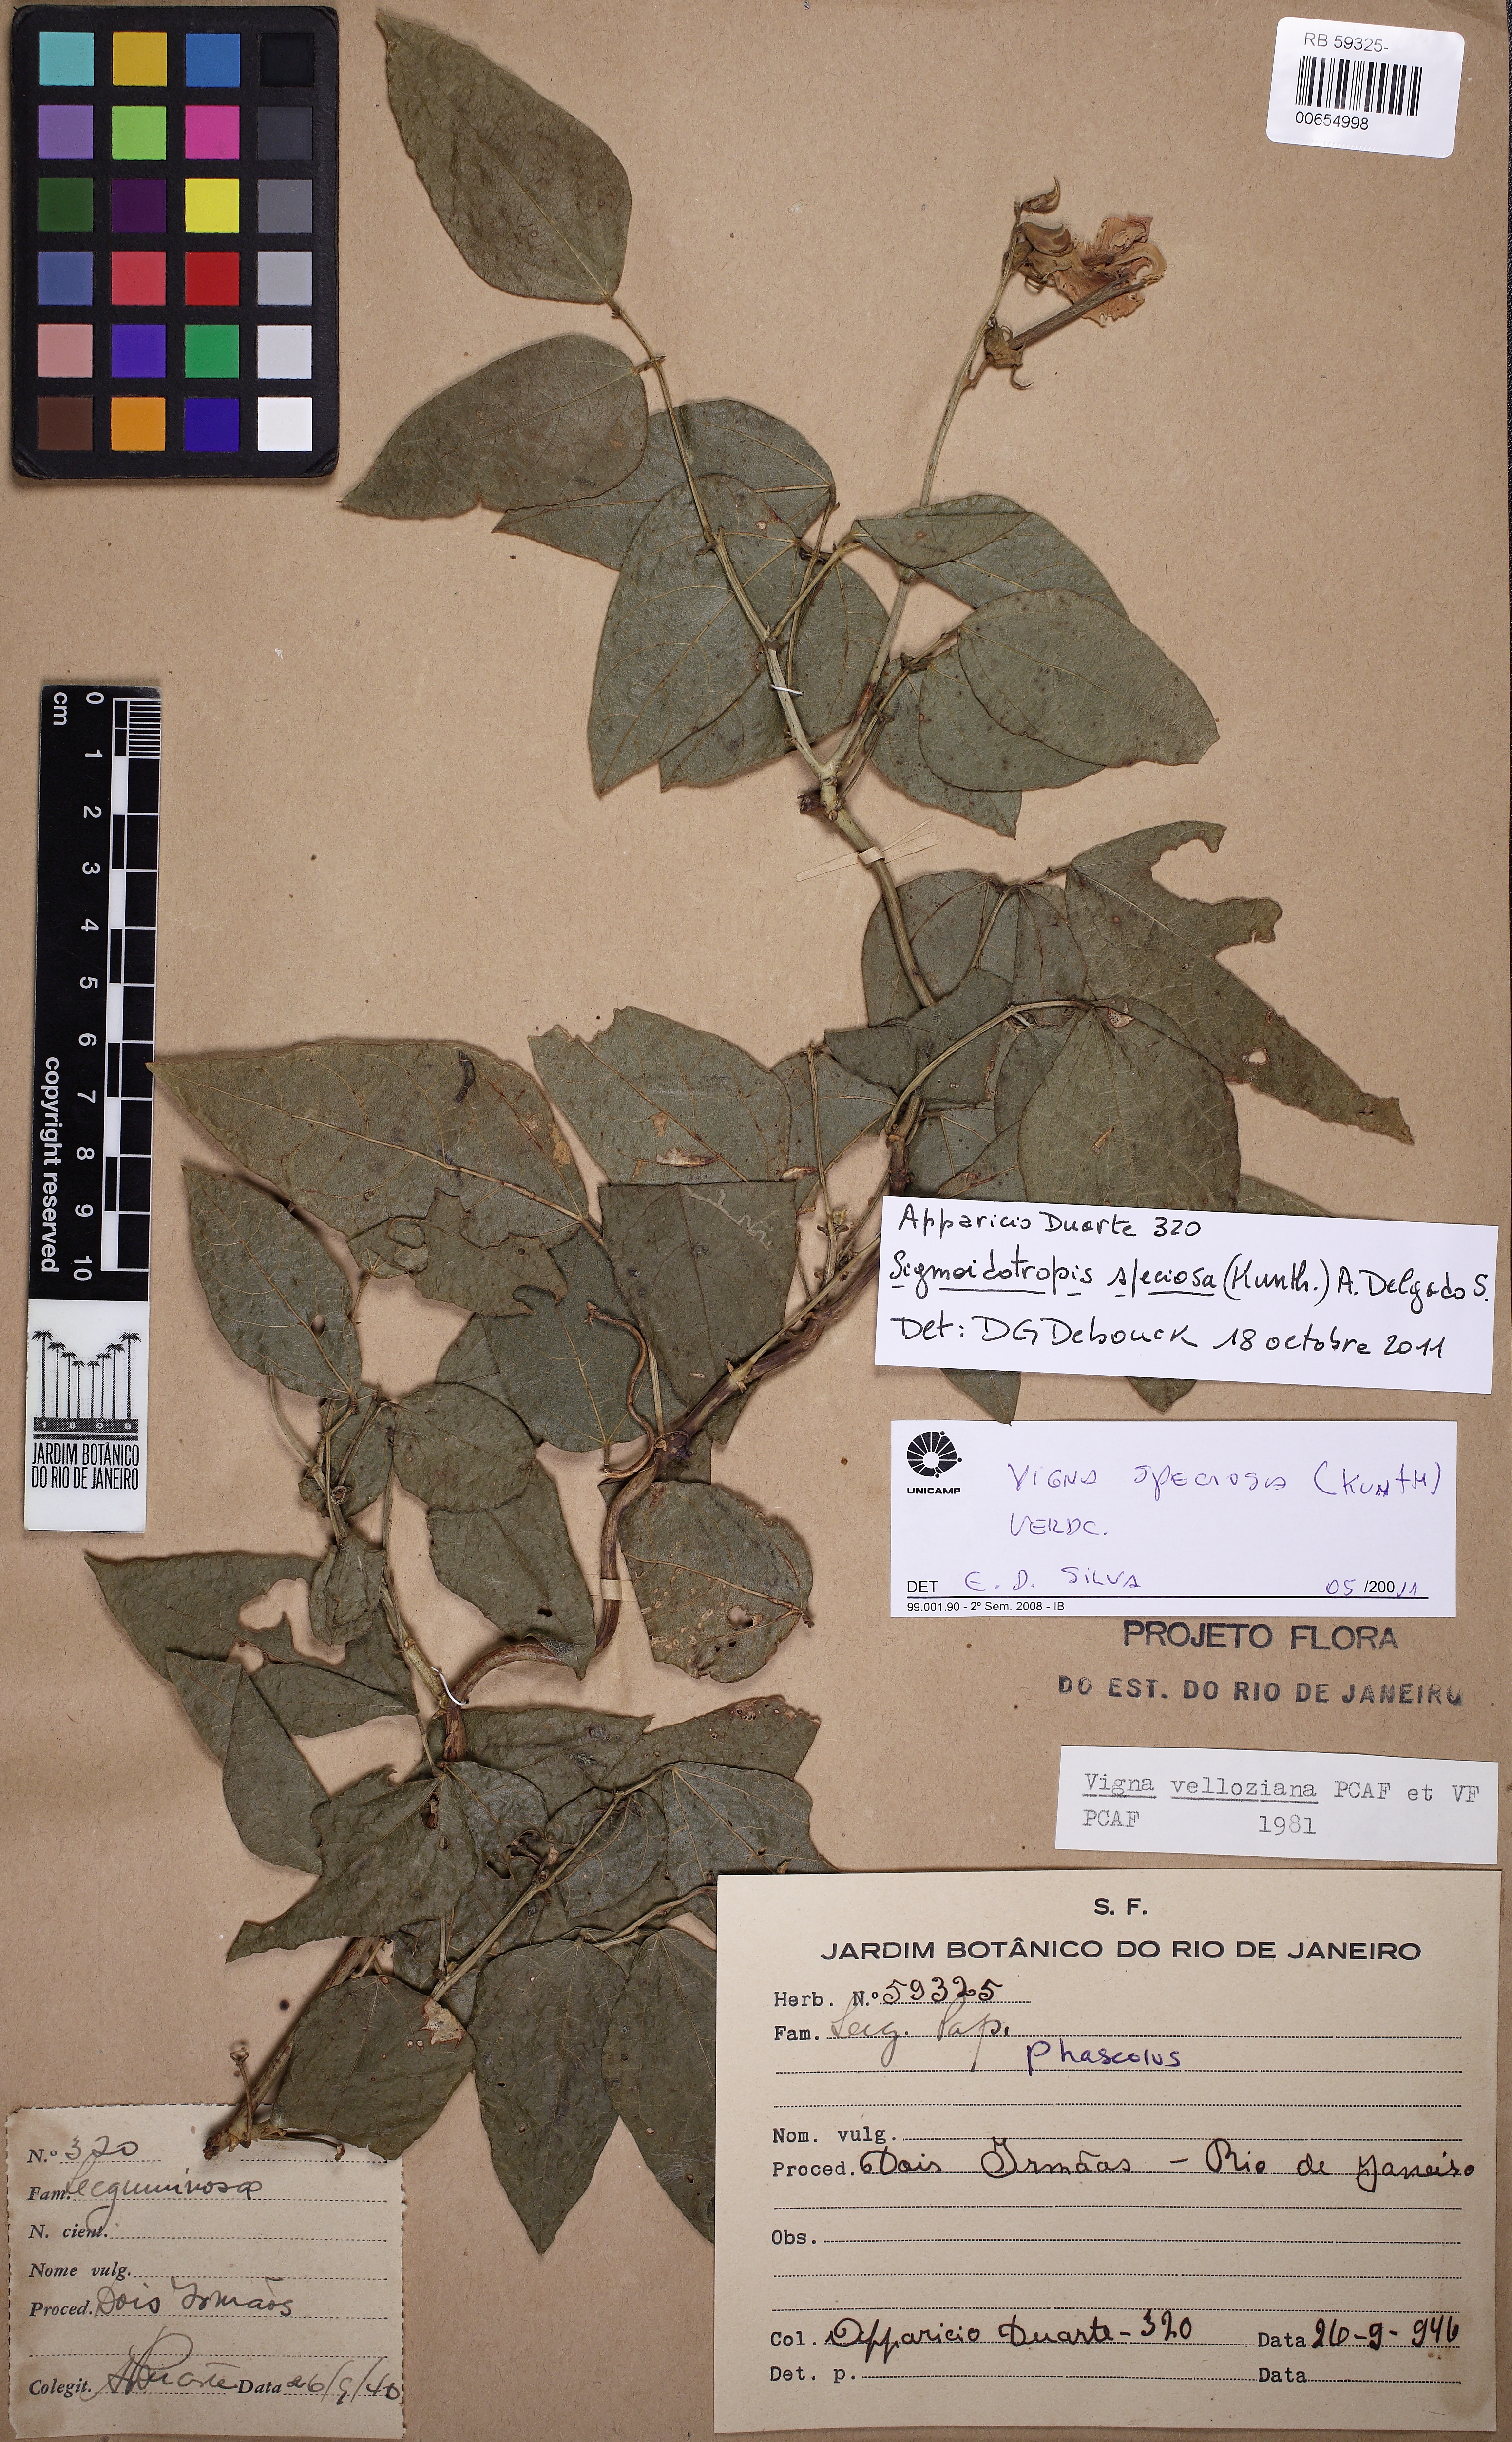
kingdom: Plantae
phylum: Tracheophyta
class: Magnoliopsida
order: Fabales
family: Fabaceae
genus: Sigmoidotropis
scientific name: Sigmoidotropis speciosa
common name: Snail flower
